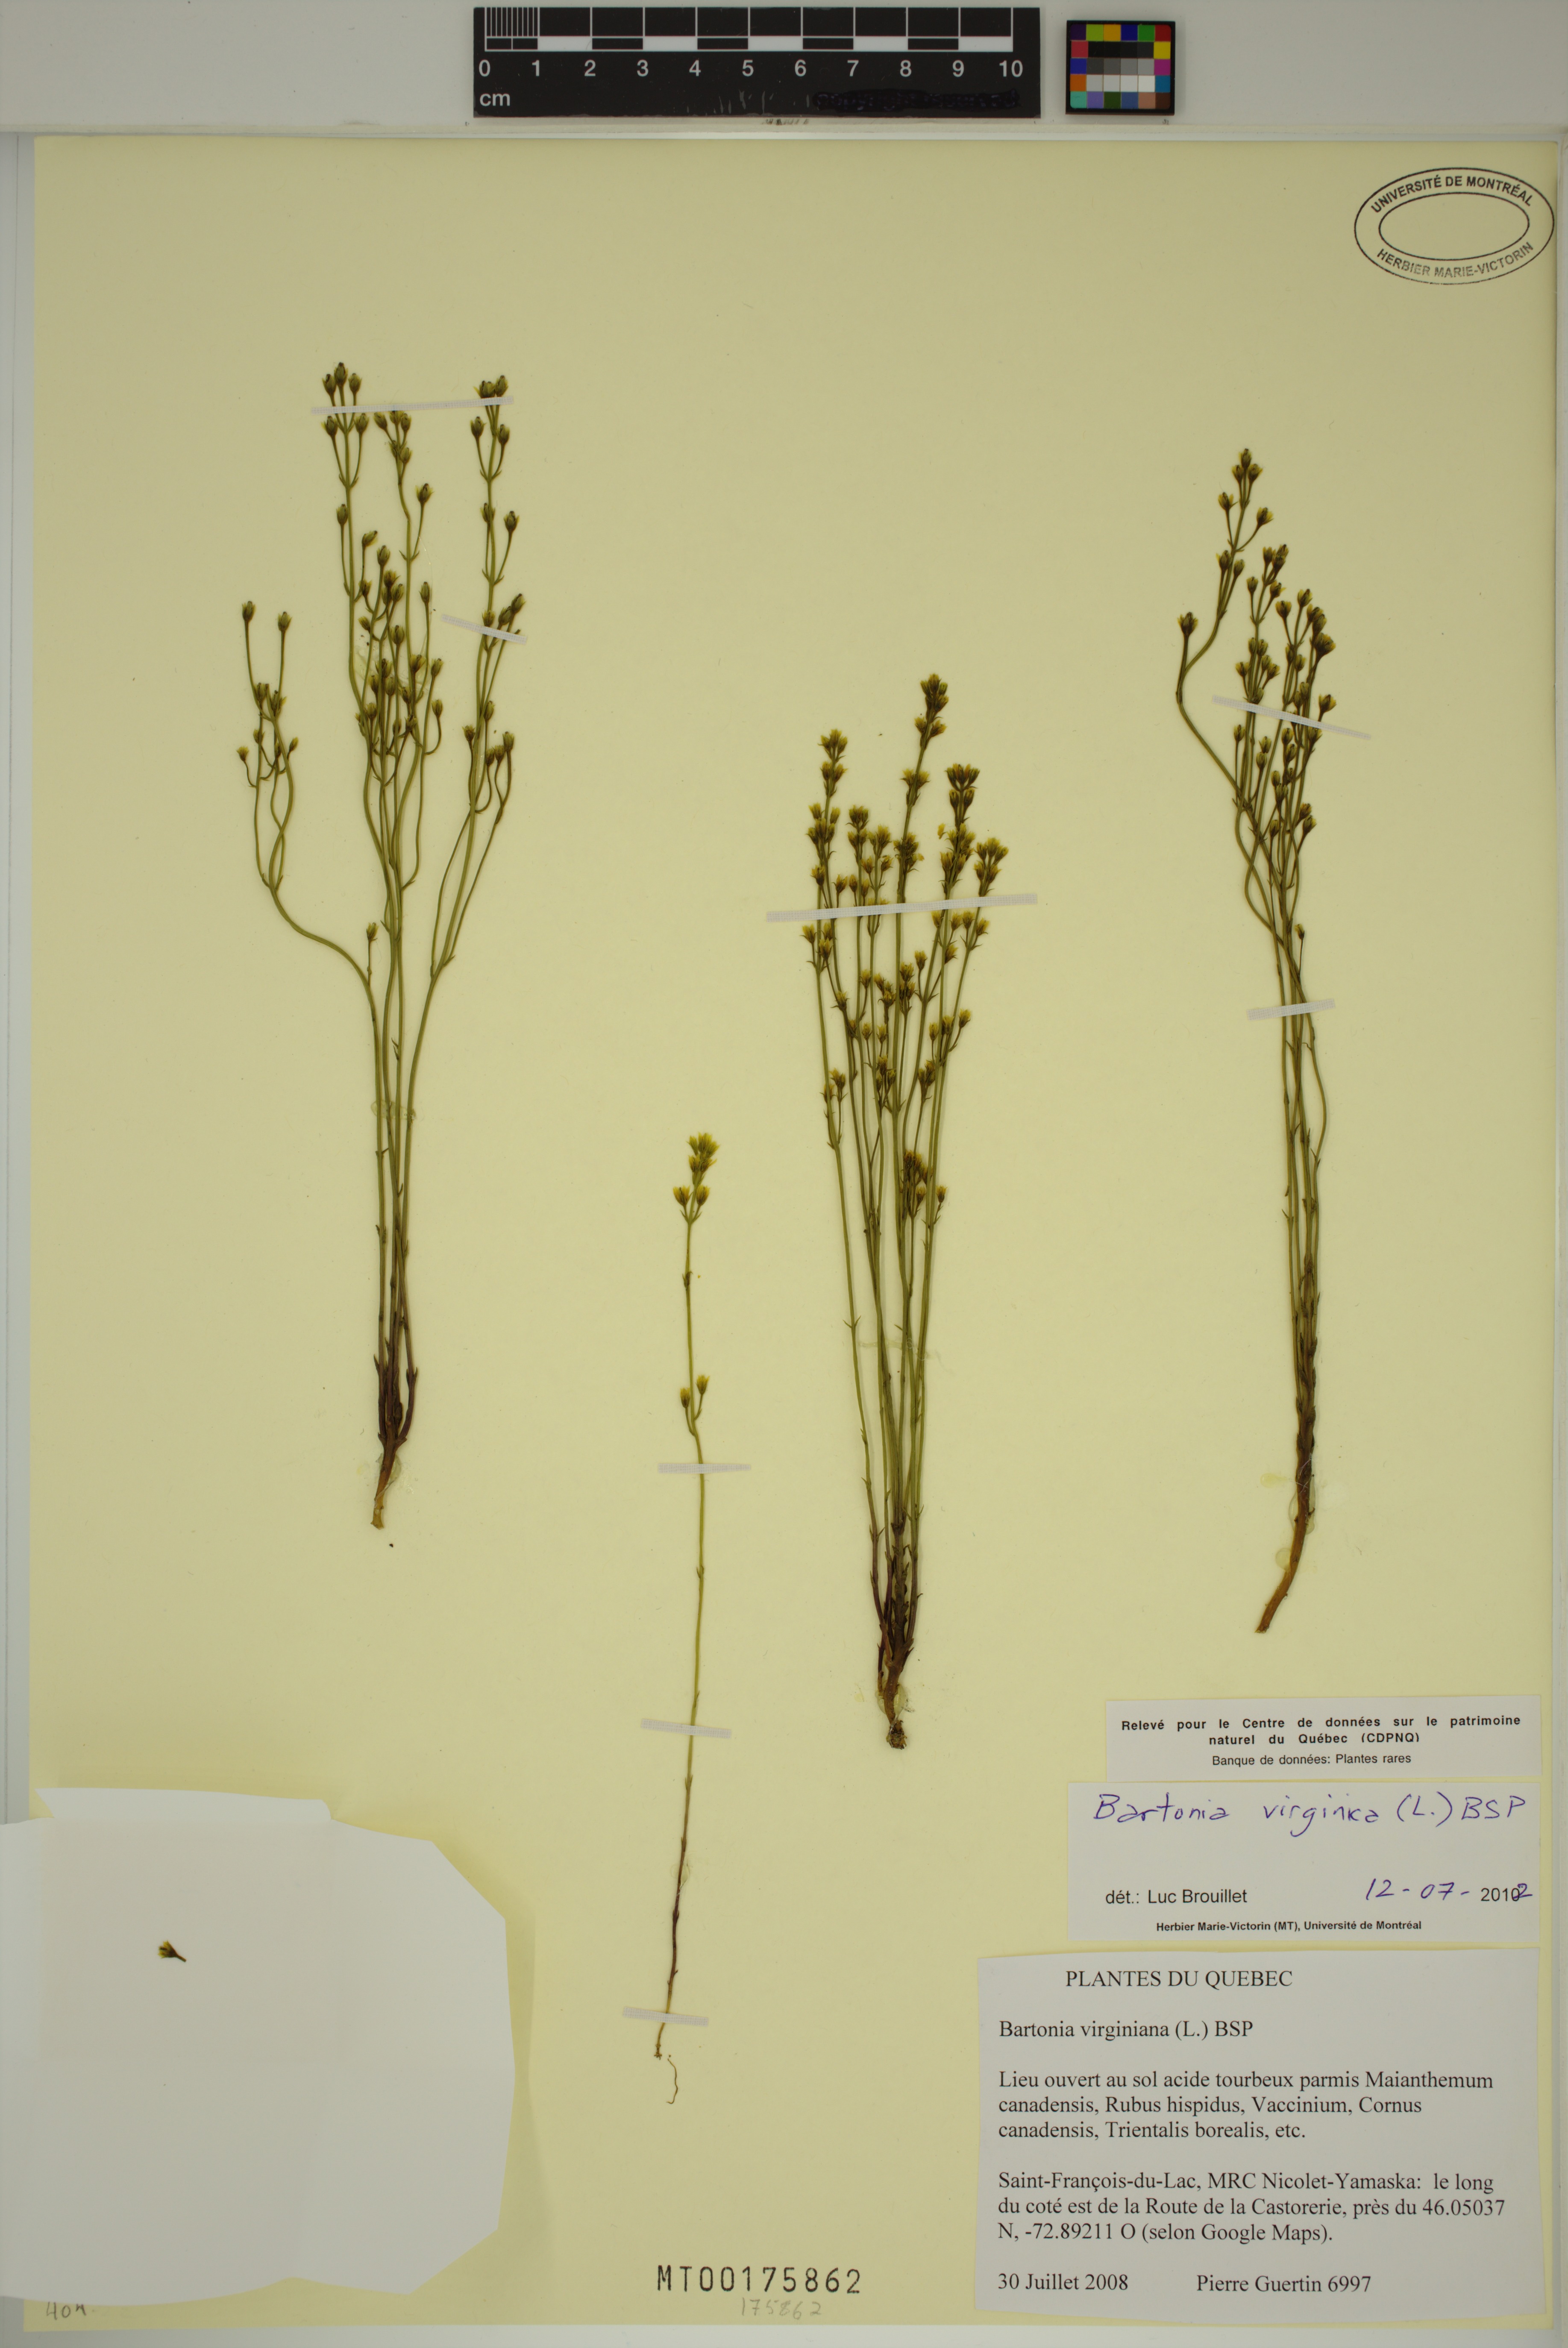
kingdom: Plantae
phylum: Tracheophyta
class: Magnoliopsida
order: Gentianales
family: Gentianaceae
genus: Bartonia
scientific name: Bartonia virginica
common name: Yellow bartonia
